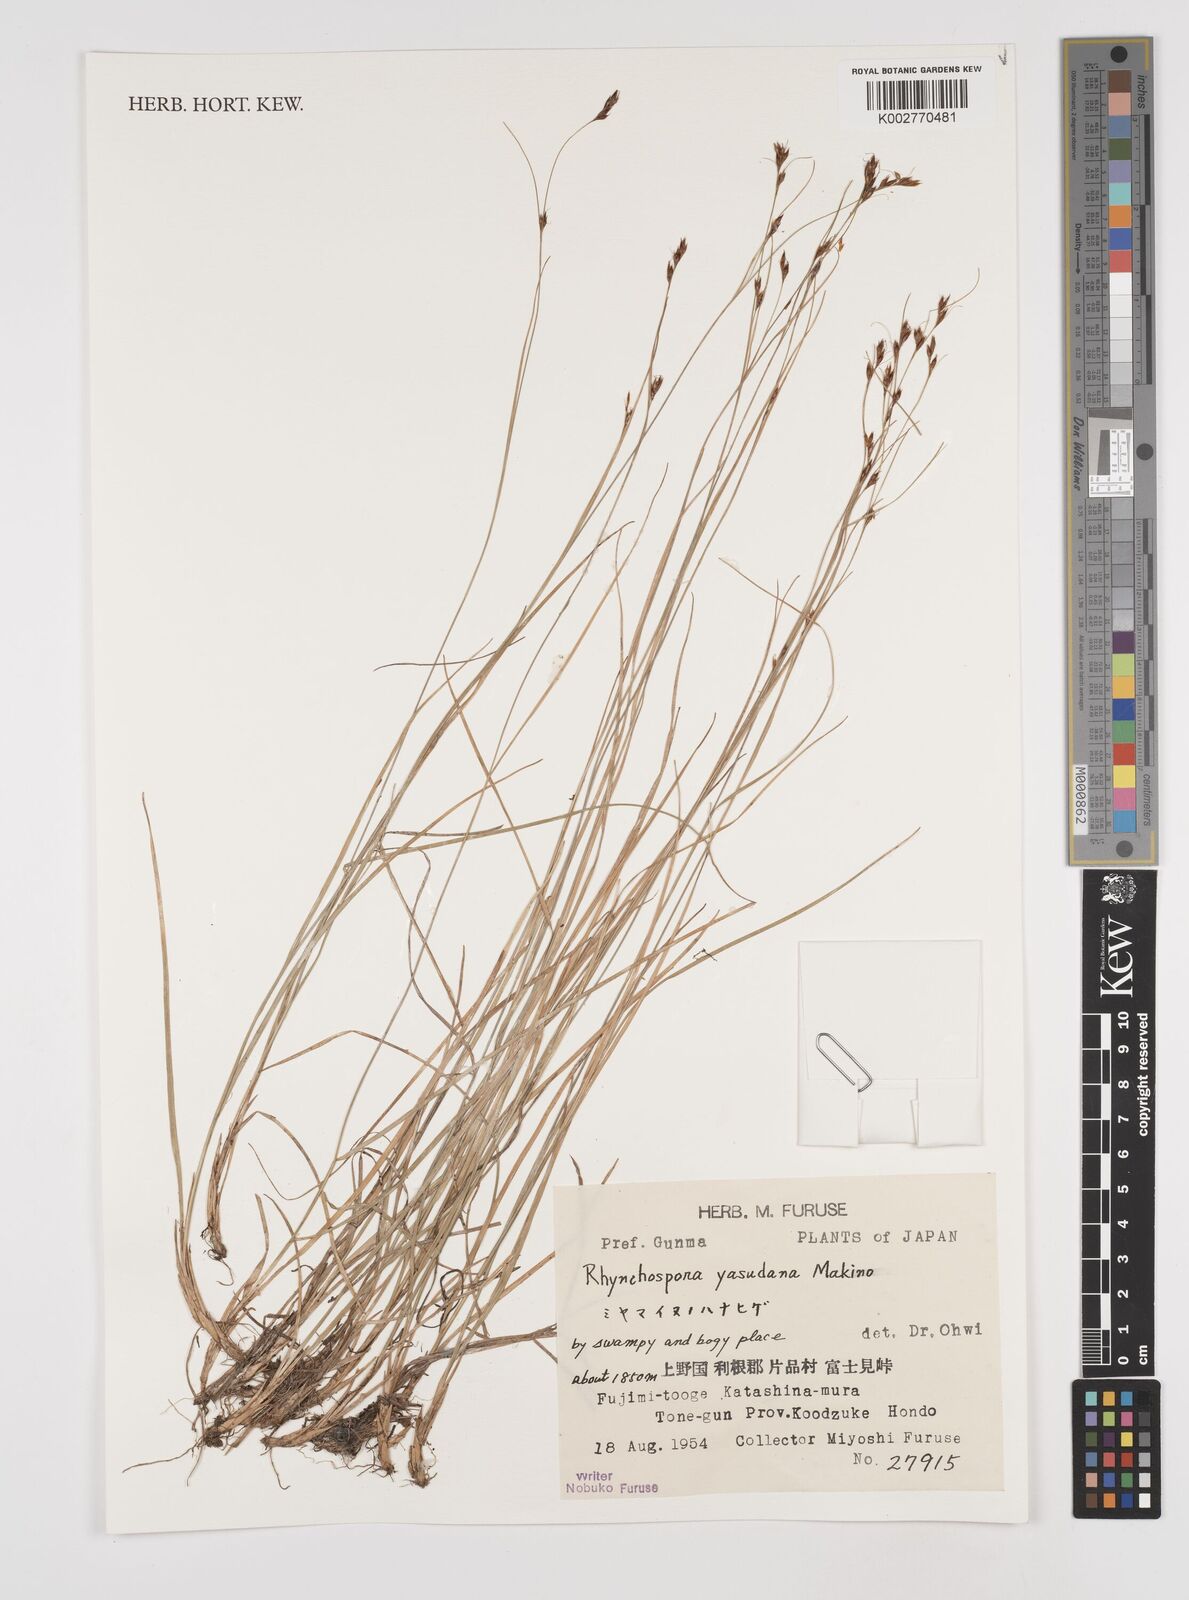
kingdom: Plantae
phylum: Tracheophyta
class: Liliopsida
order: Poales
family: Cyperaceae
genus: Rhynchospora
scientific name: Rhynchospora fujiiana
